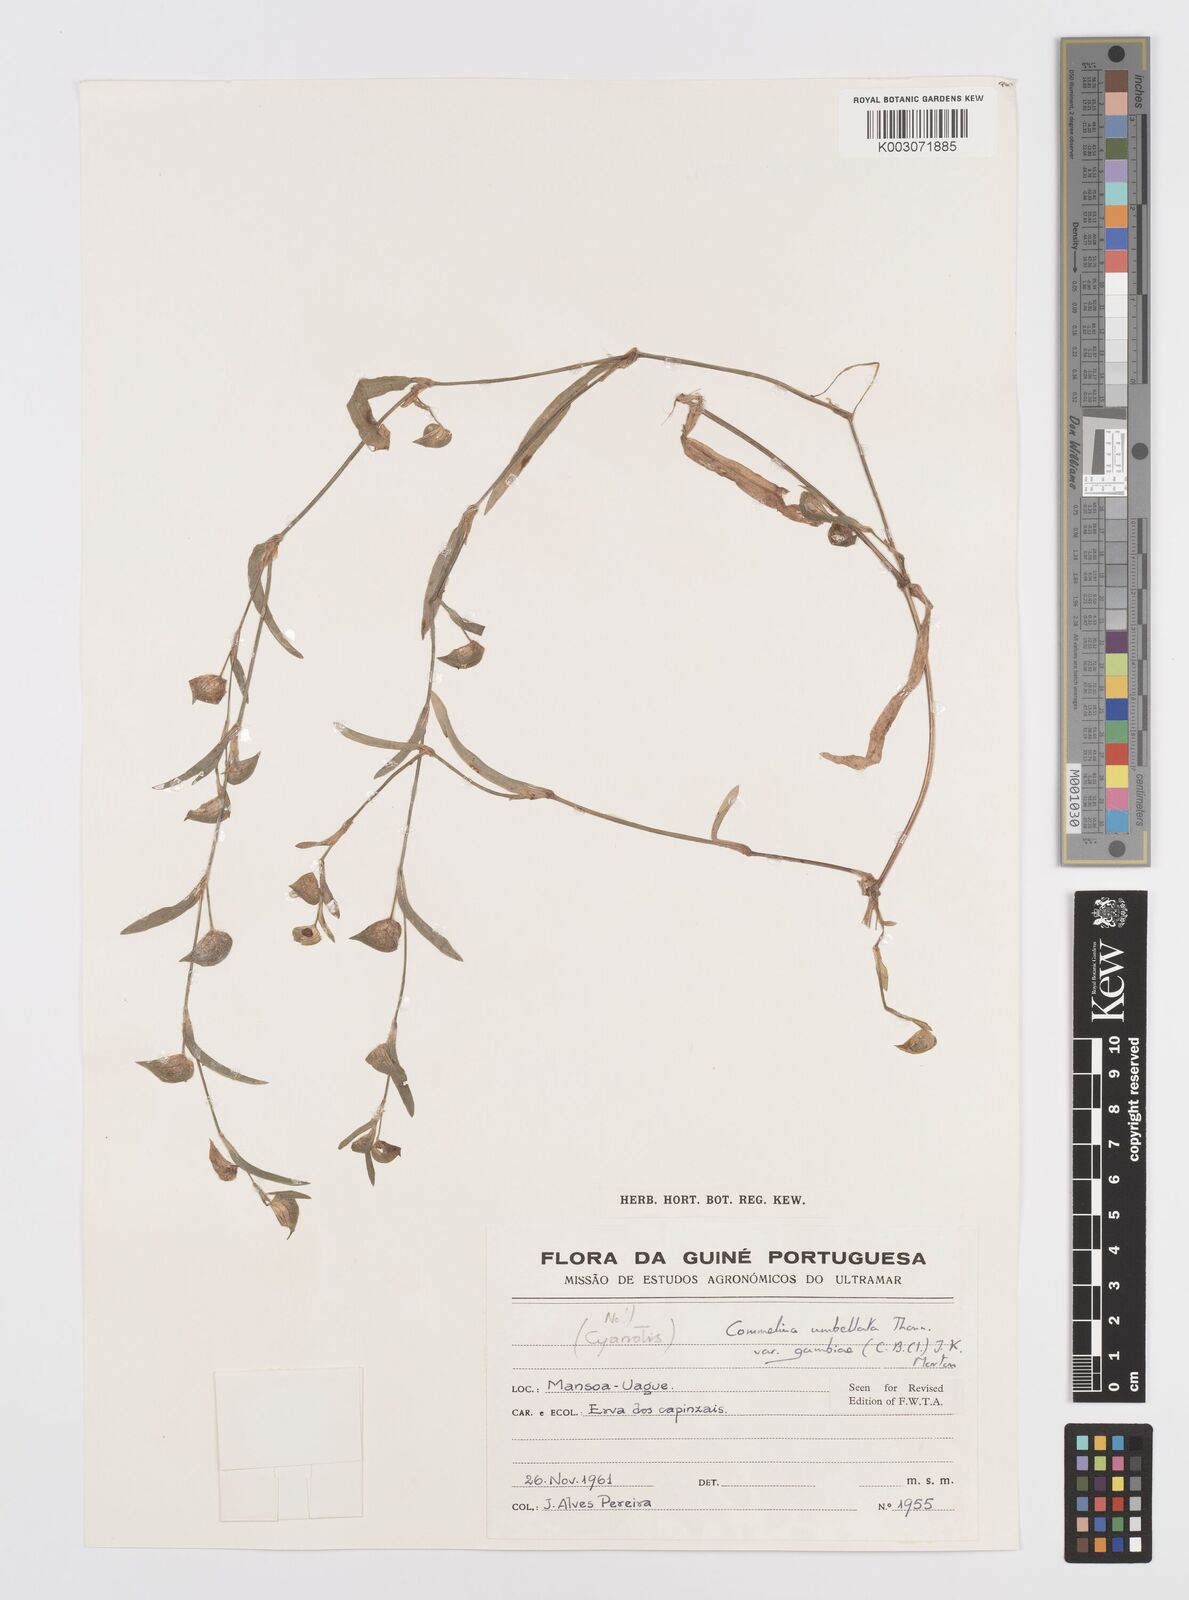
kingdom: Plantae
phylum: Tracheophyta
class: Liliopsida
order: Commelinales
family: Commelinaceae
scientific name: Commelinaceae
